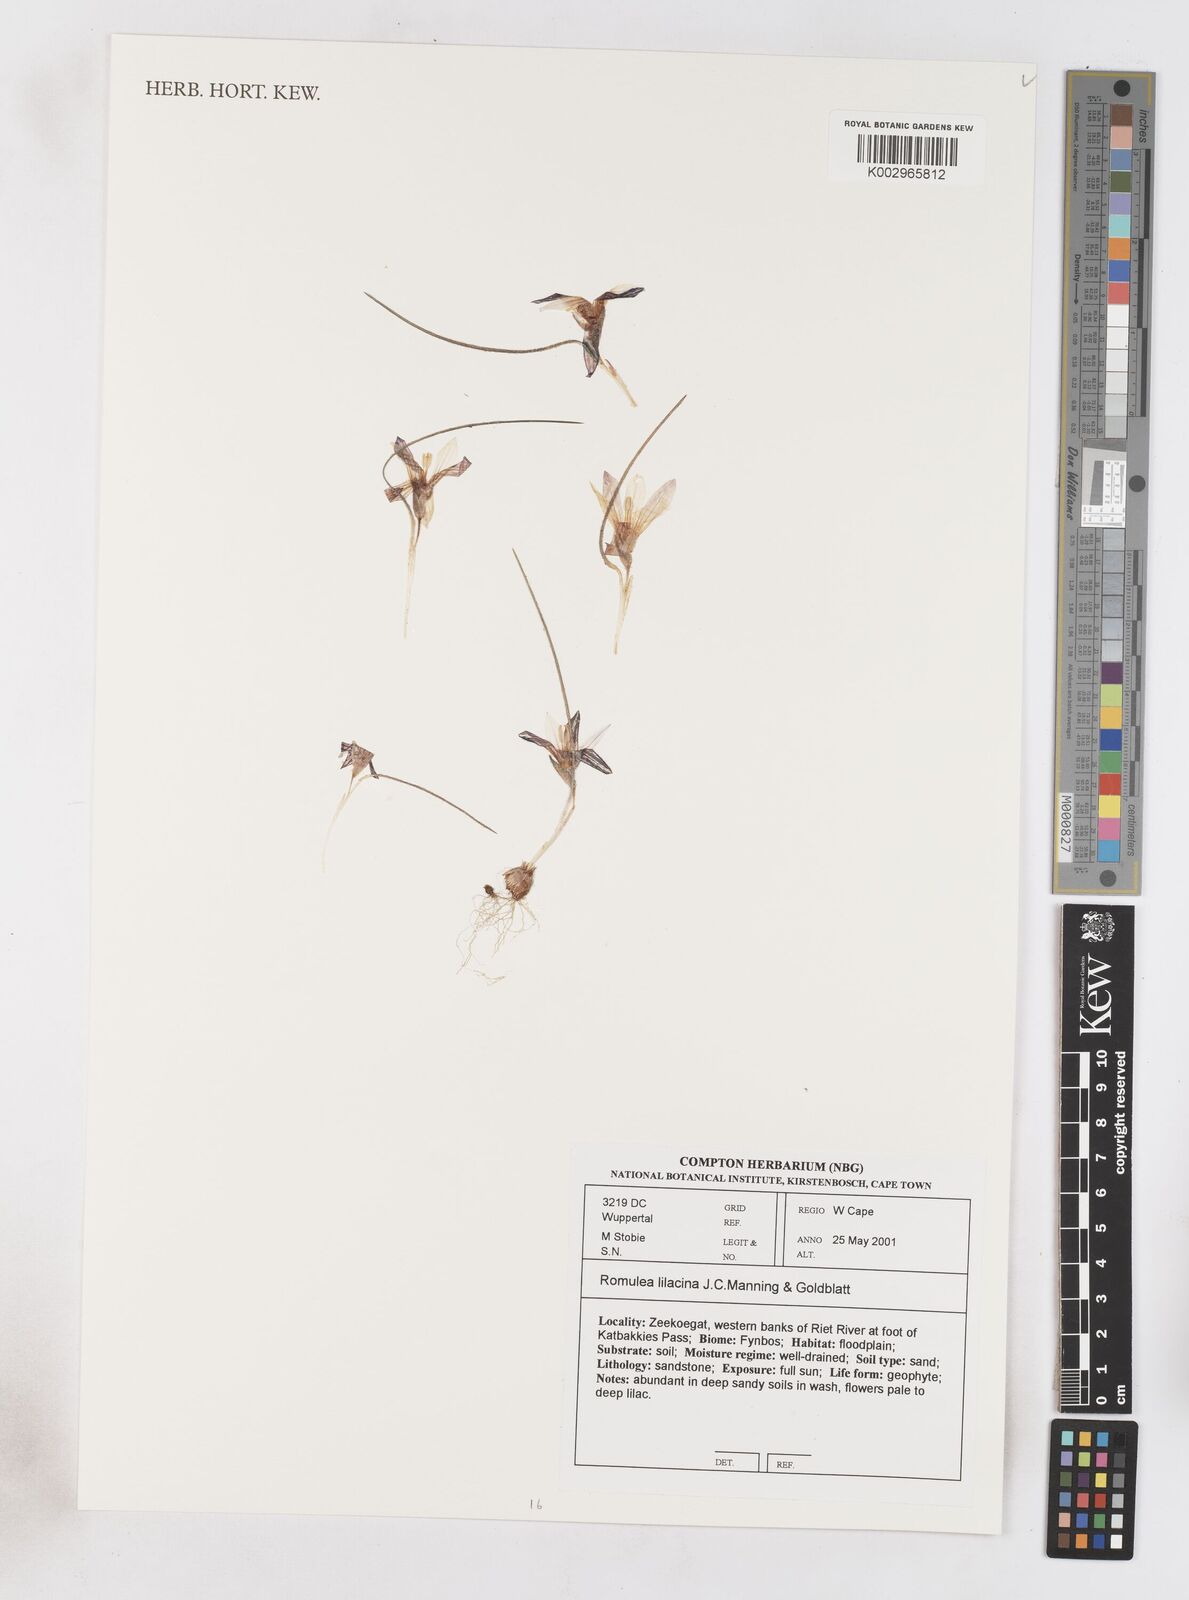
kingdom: Plantae
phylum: Tracheophyta
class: Liliopsida
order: Asparagales
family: Iridaceae
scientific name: Iridaceae
